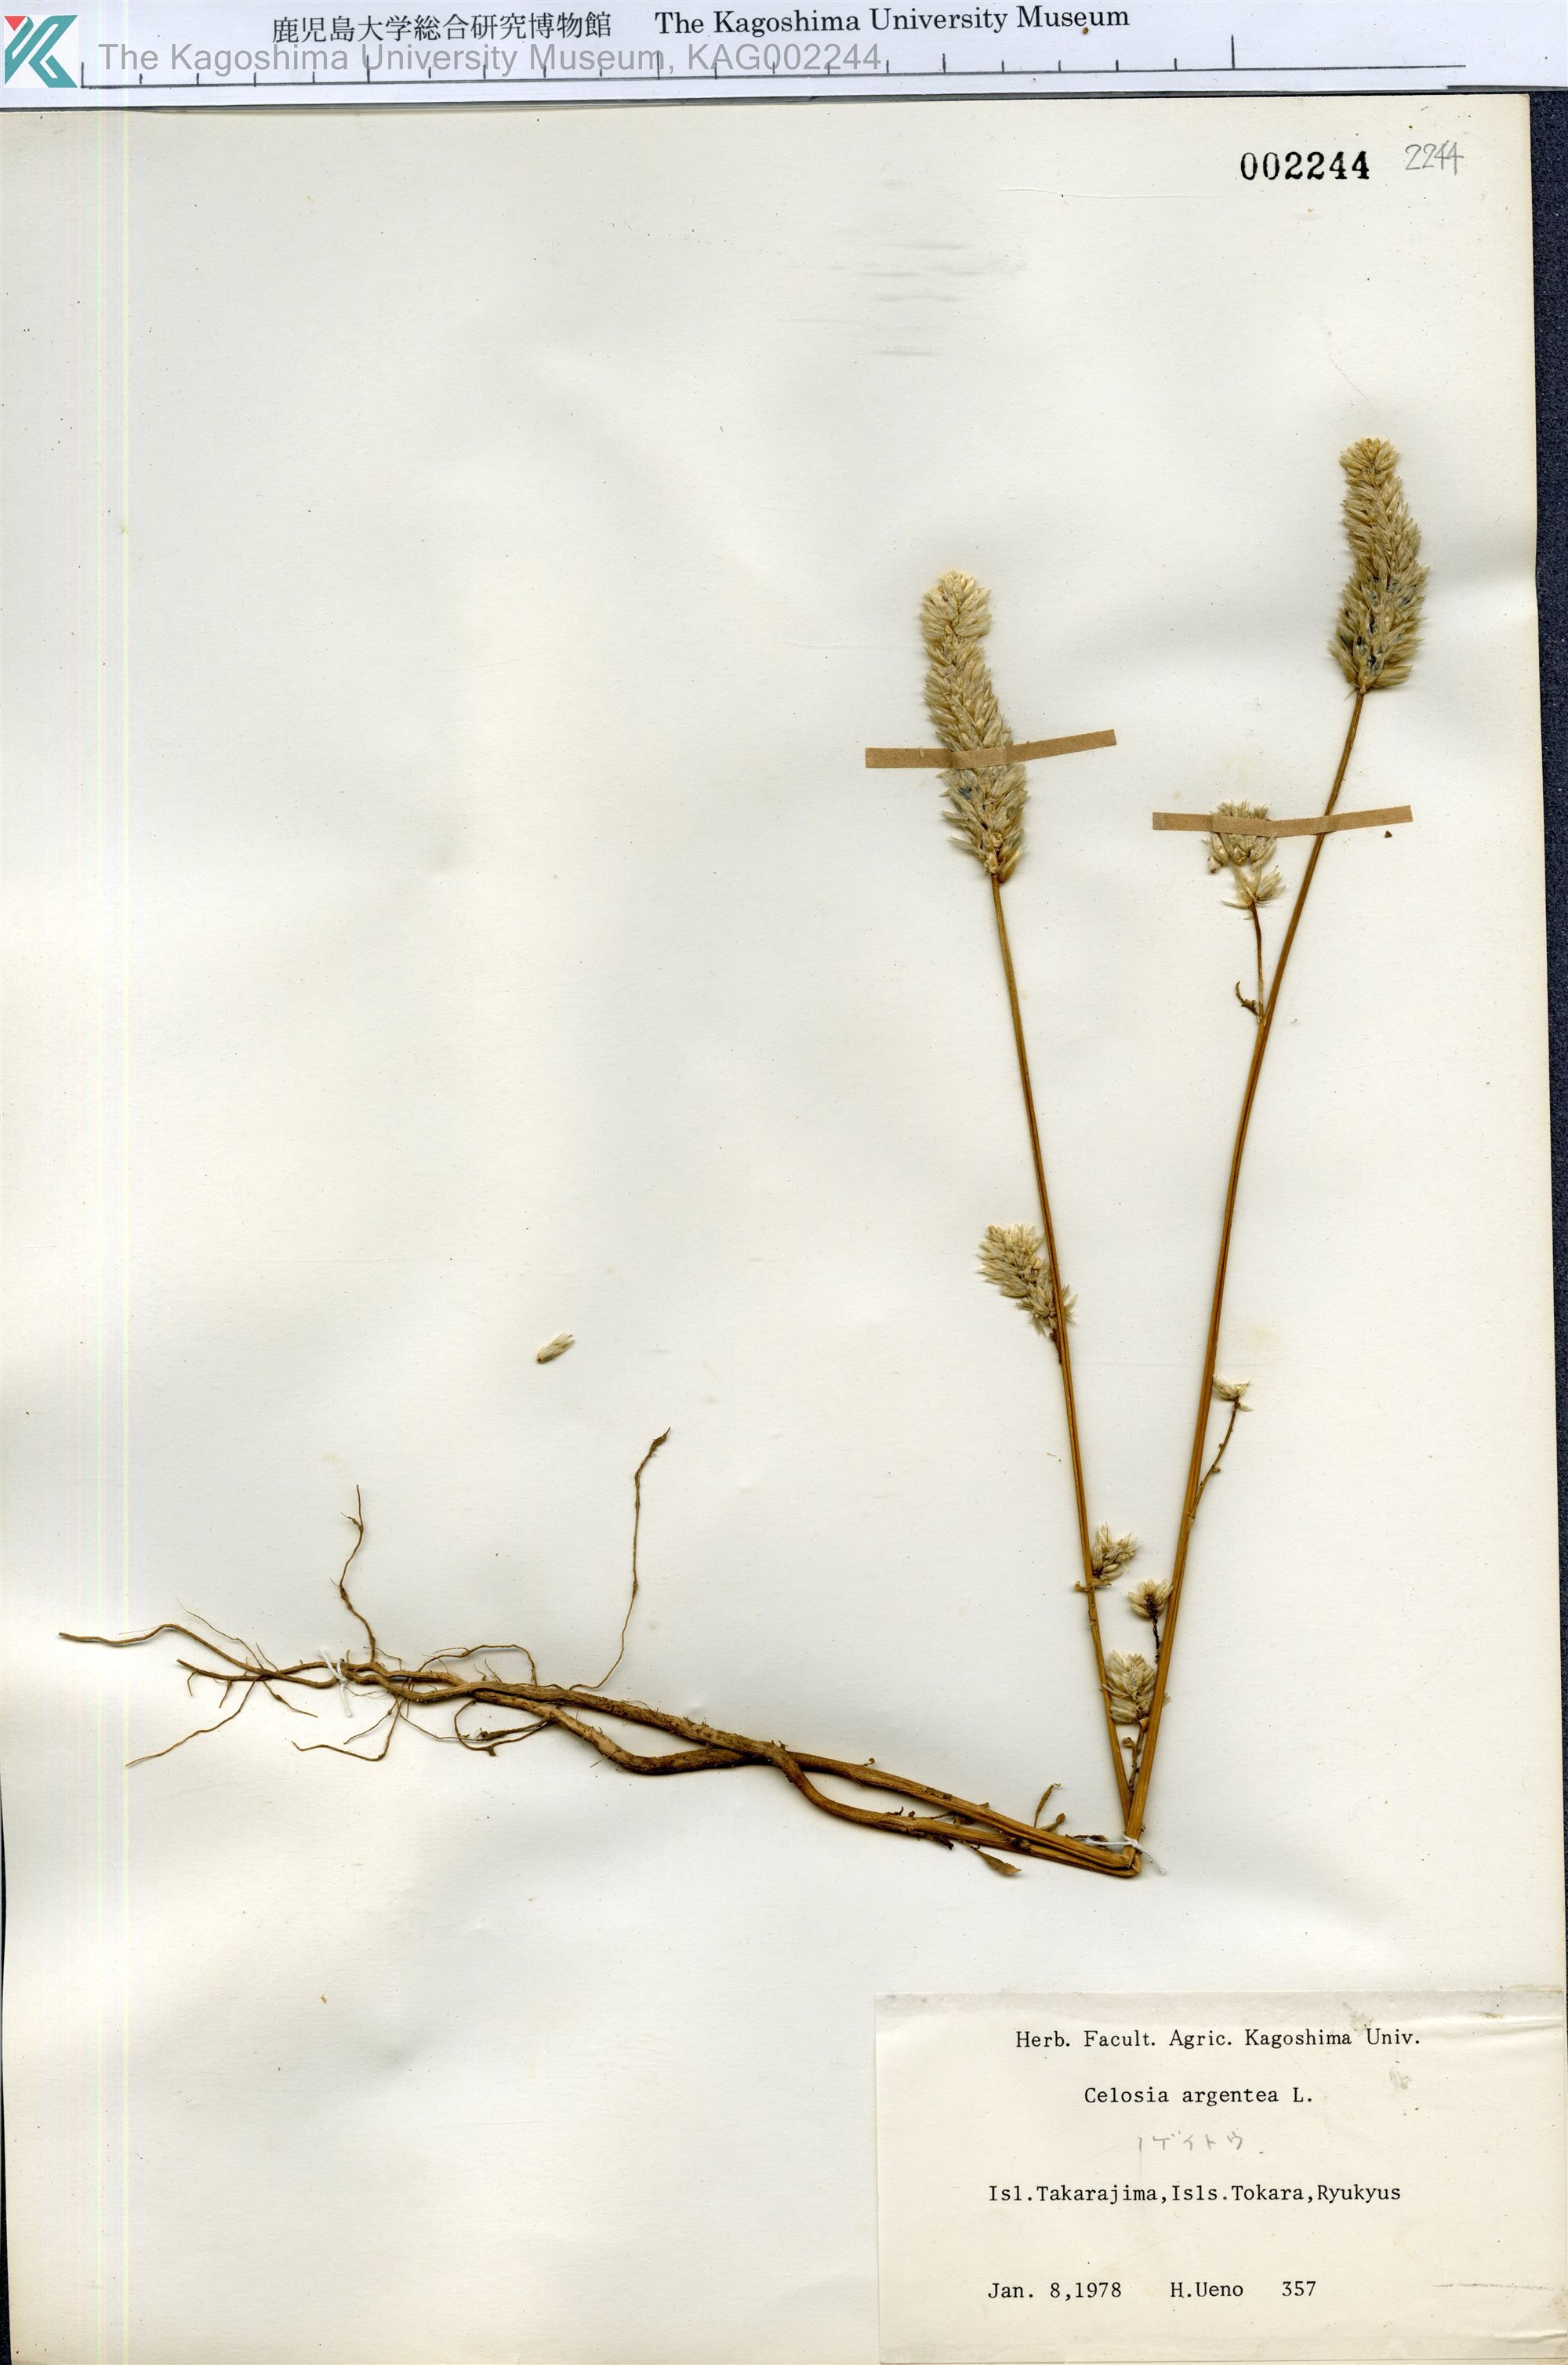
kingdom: Plantae
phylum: Tracheophyta
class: Magnoliopsida
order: Caryophyllales
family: Amaranthaceae
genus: Celosia
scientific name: Celosia argentea
